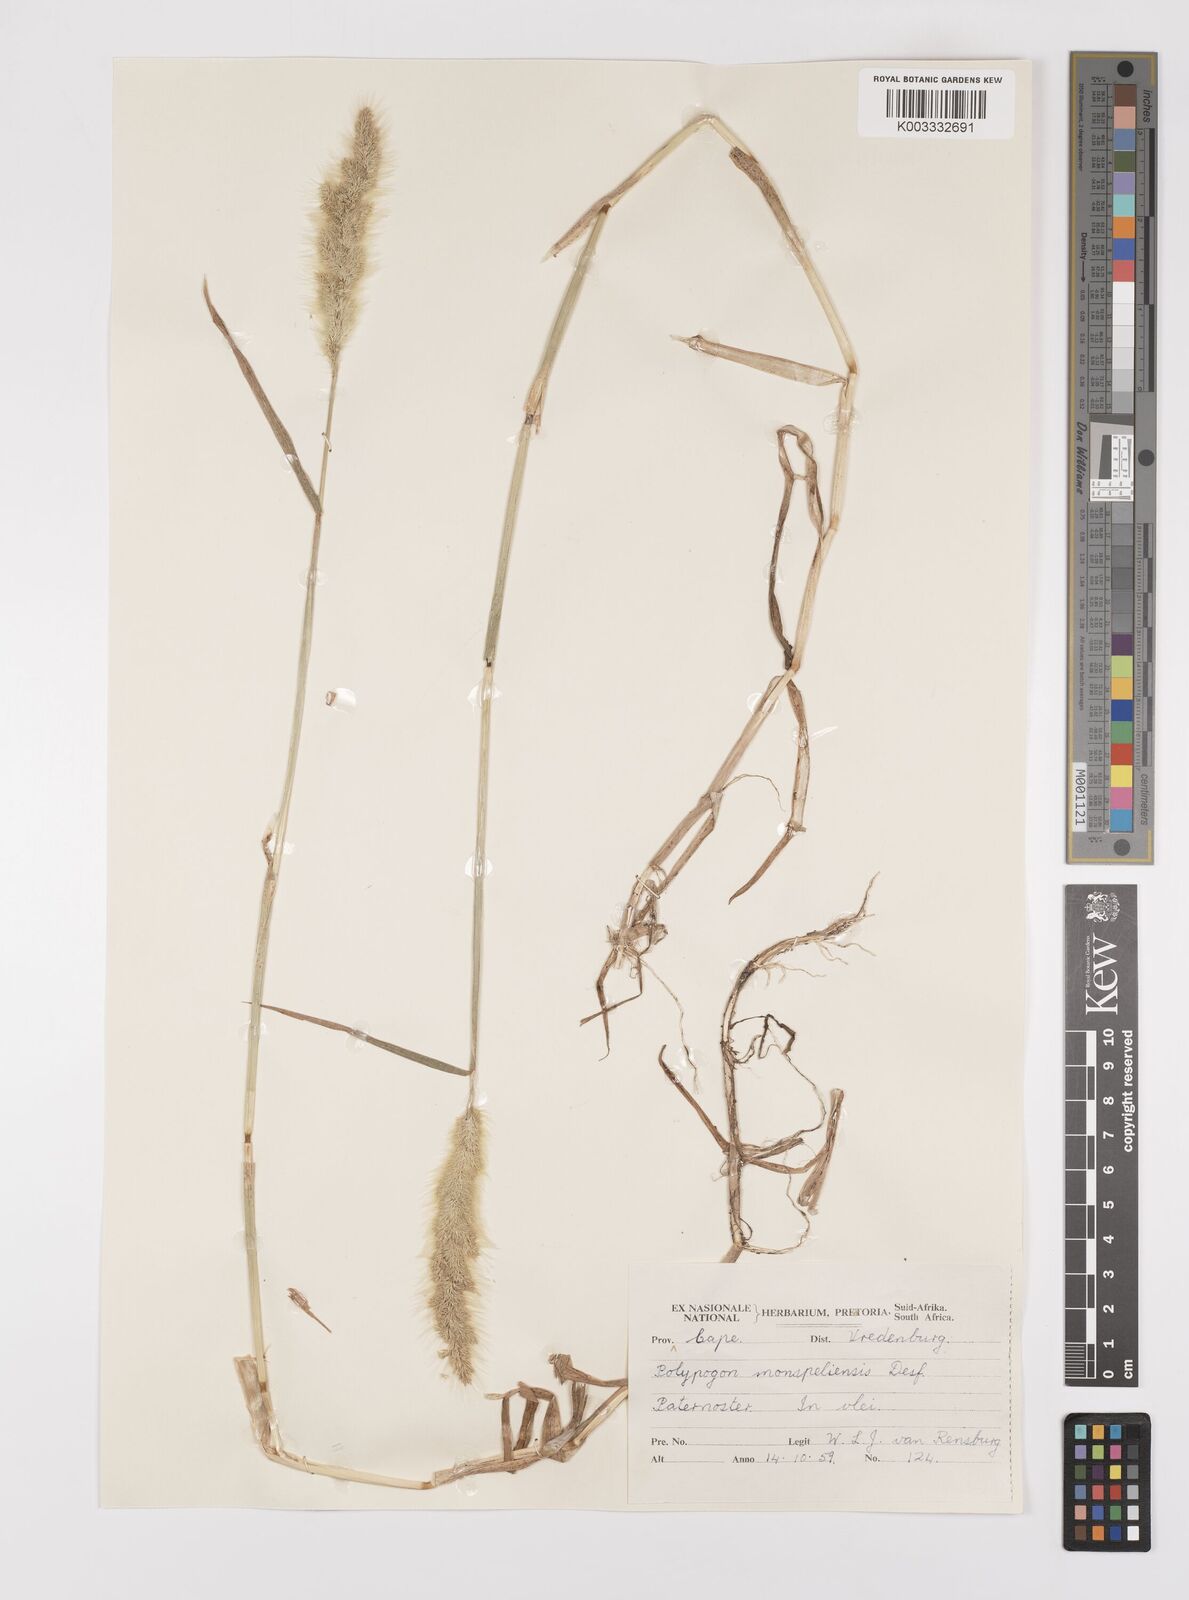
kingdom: Plantae
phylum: Tracheophyta
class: Liliopsida
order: Poales
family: Poaceae
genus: Polypogon
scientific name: Polypogon monspeliensis
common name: Annual rabbitsfoot grass
